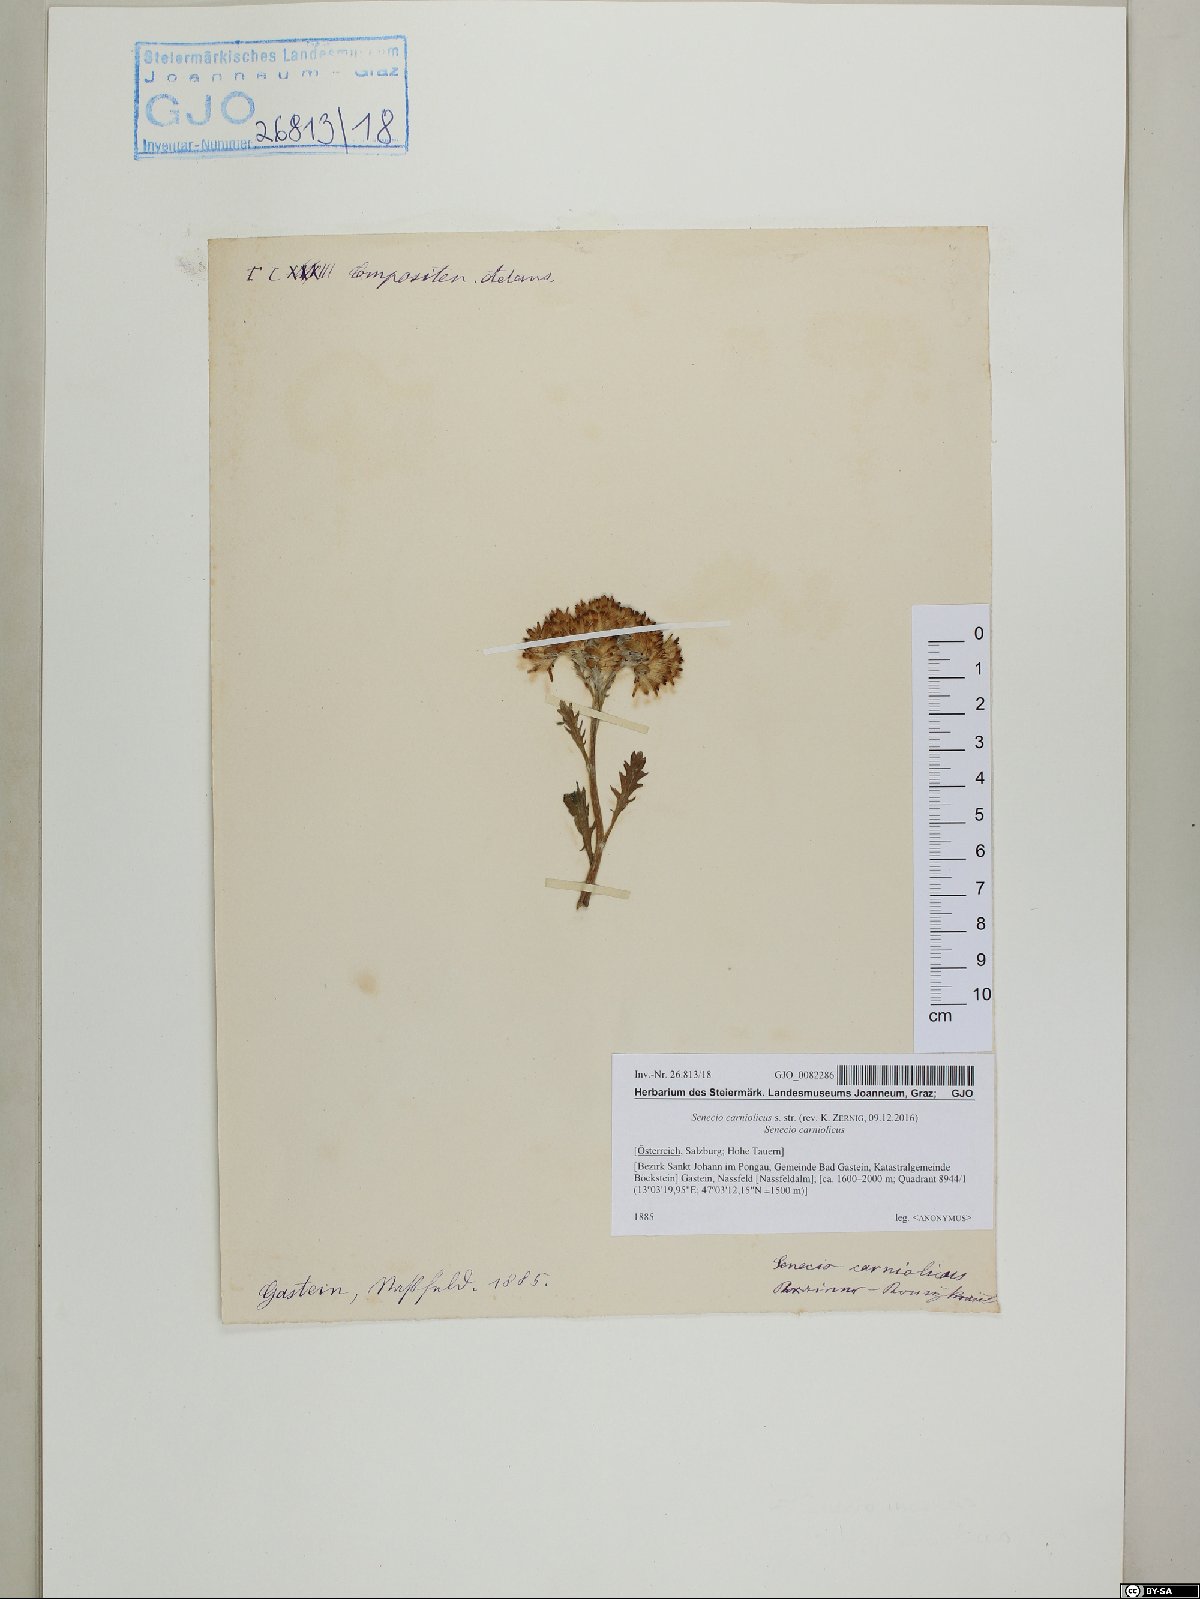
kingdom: Plantae
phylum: Tracheophyta
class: Magnoliopsida
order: Asterales
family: Asteraceae
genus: Jacobaea
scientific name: Jacobaea carniolica
